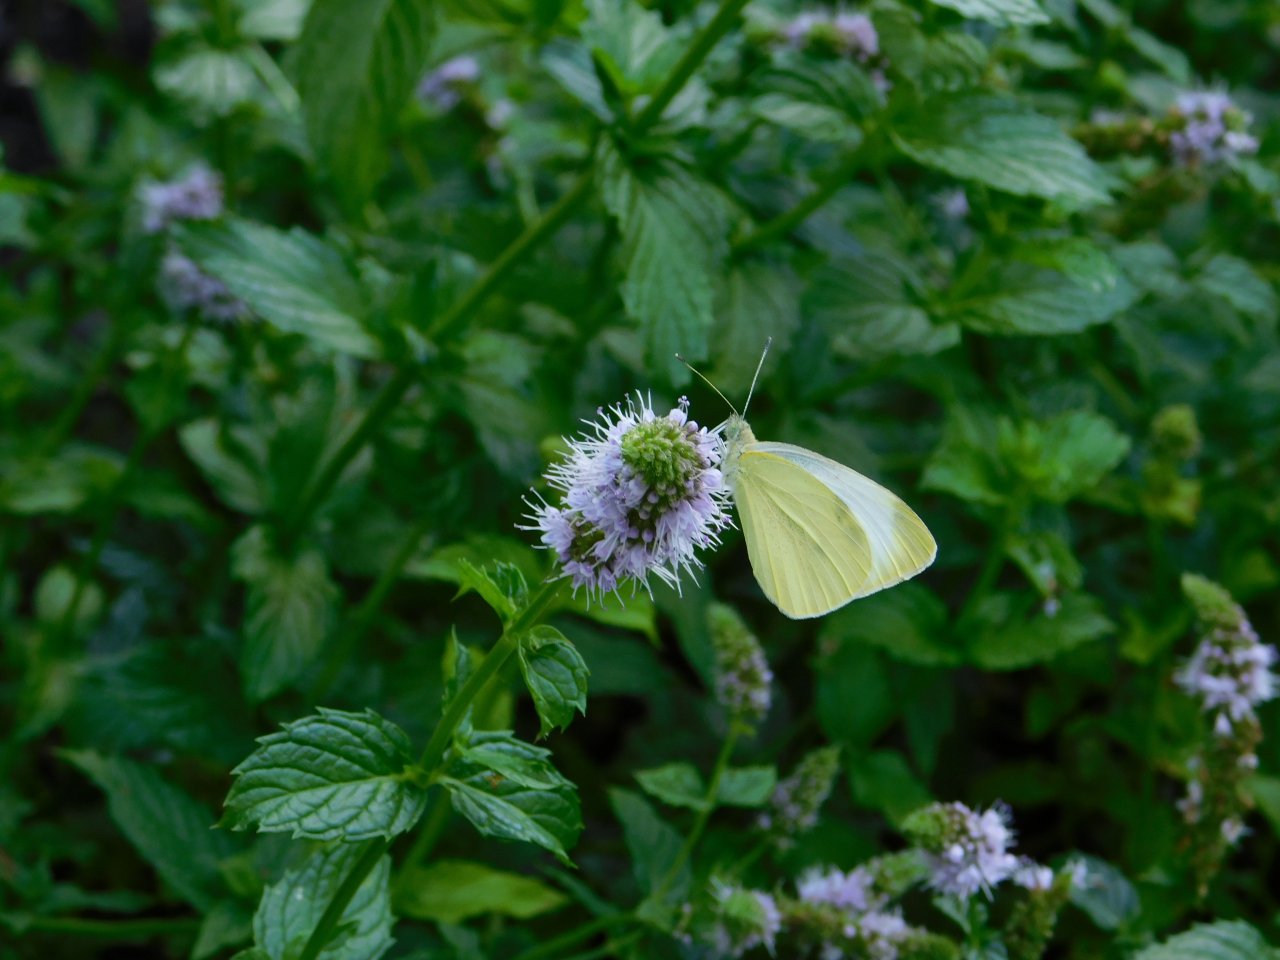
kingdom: Animalia
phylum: Arthropoda
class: Insecta
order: Lepidoptera
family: Pieridae
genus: Pieris
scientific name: Pieris rapae
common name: Cabbage White
